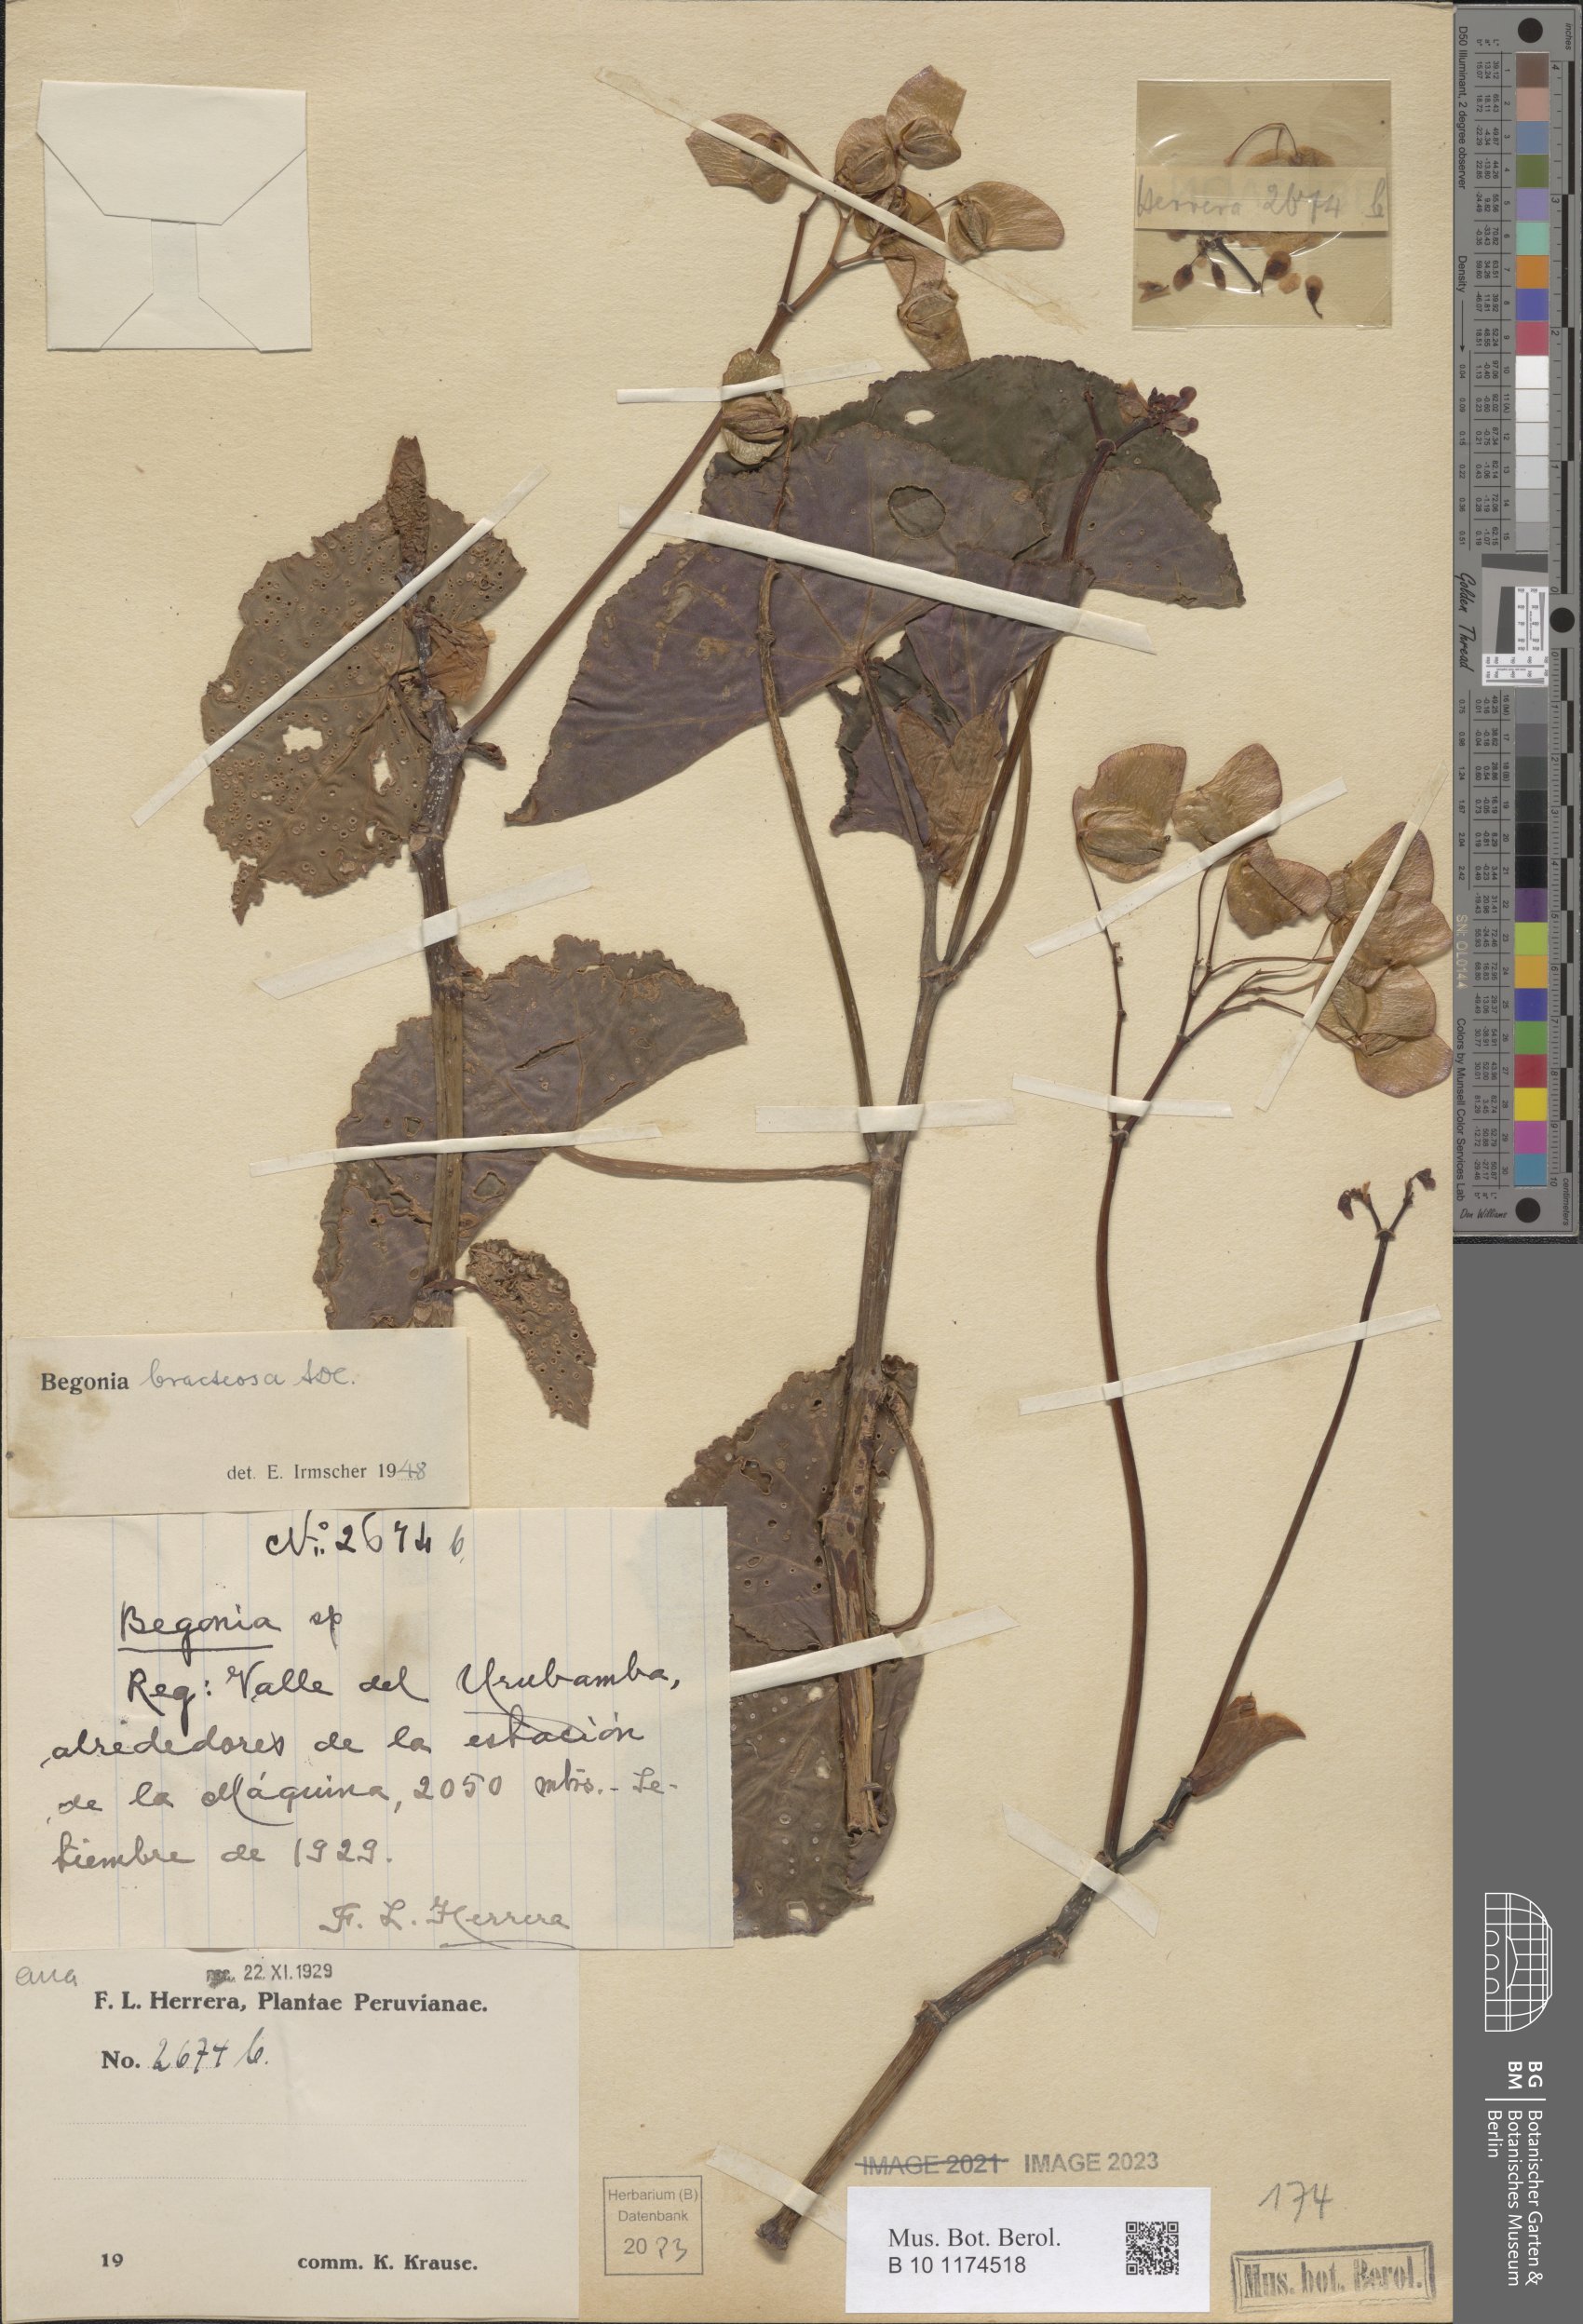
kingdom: Plantae
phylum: Tracheophyta
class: Magnoliopsida
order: Cucurbitales
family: Begoniaceae
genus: Begonia
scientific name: Begonia bracteosa
